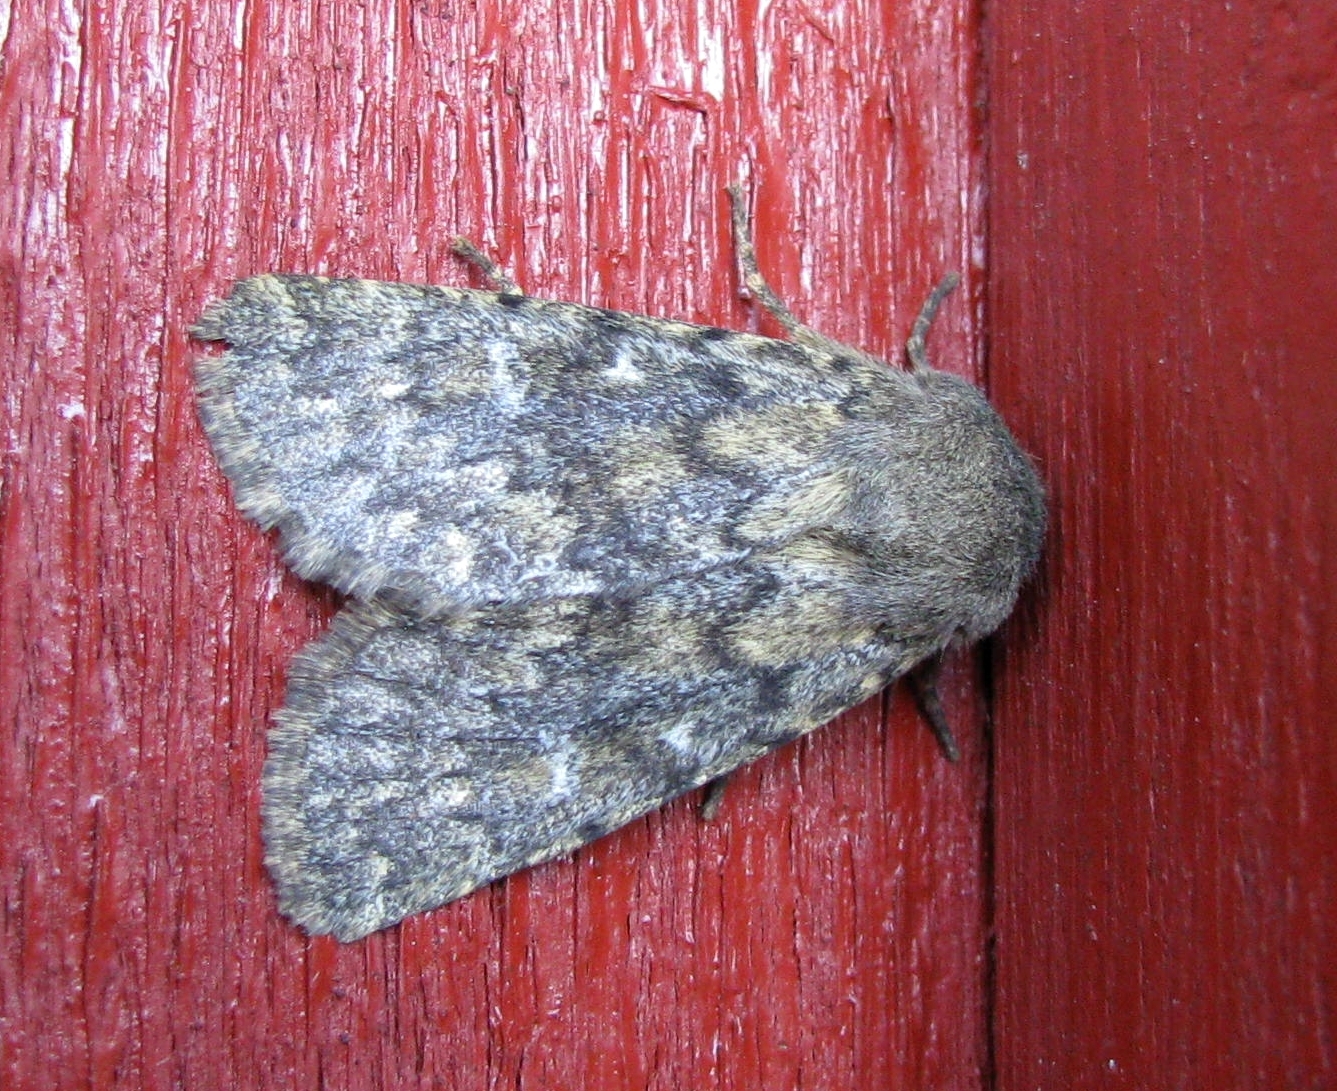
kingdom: Animalia
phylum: Arthropoda
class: Insecta
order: Lepidoptera
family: Noctuidae
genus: Dasypolia
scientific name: Dasypolia templi
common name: Brindled ochre
